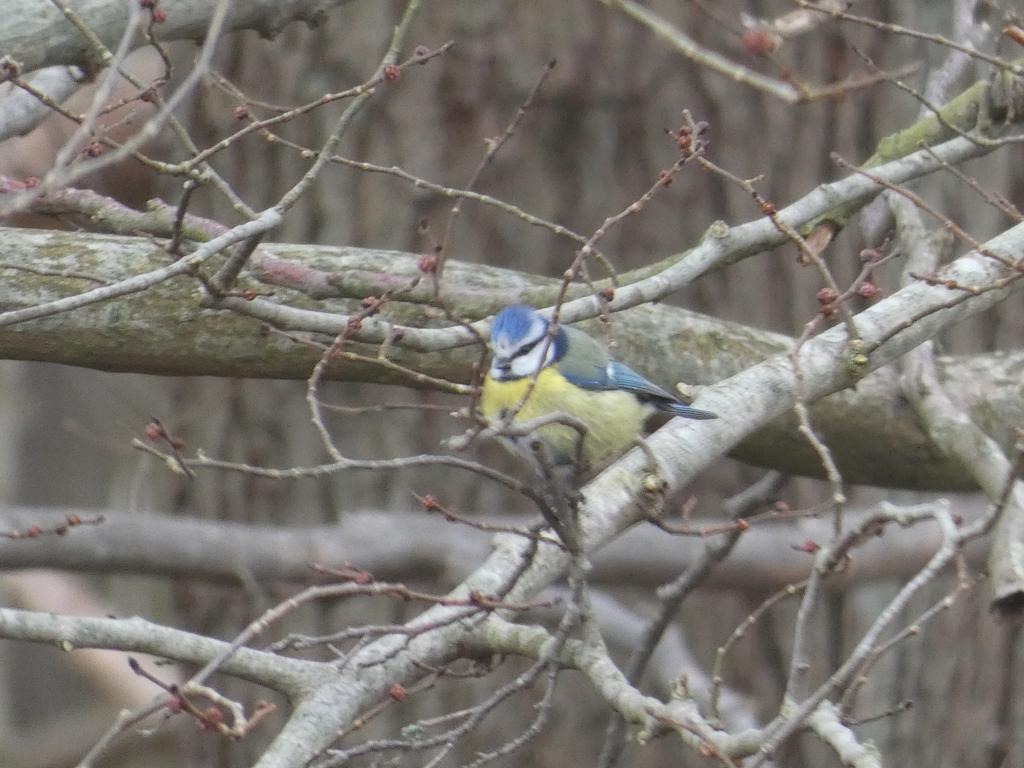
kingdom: Animalia
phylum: Chordata
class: Aves
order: Passeriformes
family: Paridae
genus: Cyanistes
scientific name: Cyanistes caeruleus
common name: Blåmejse
